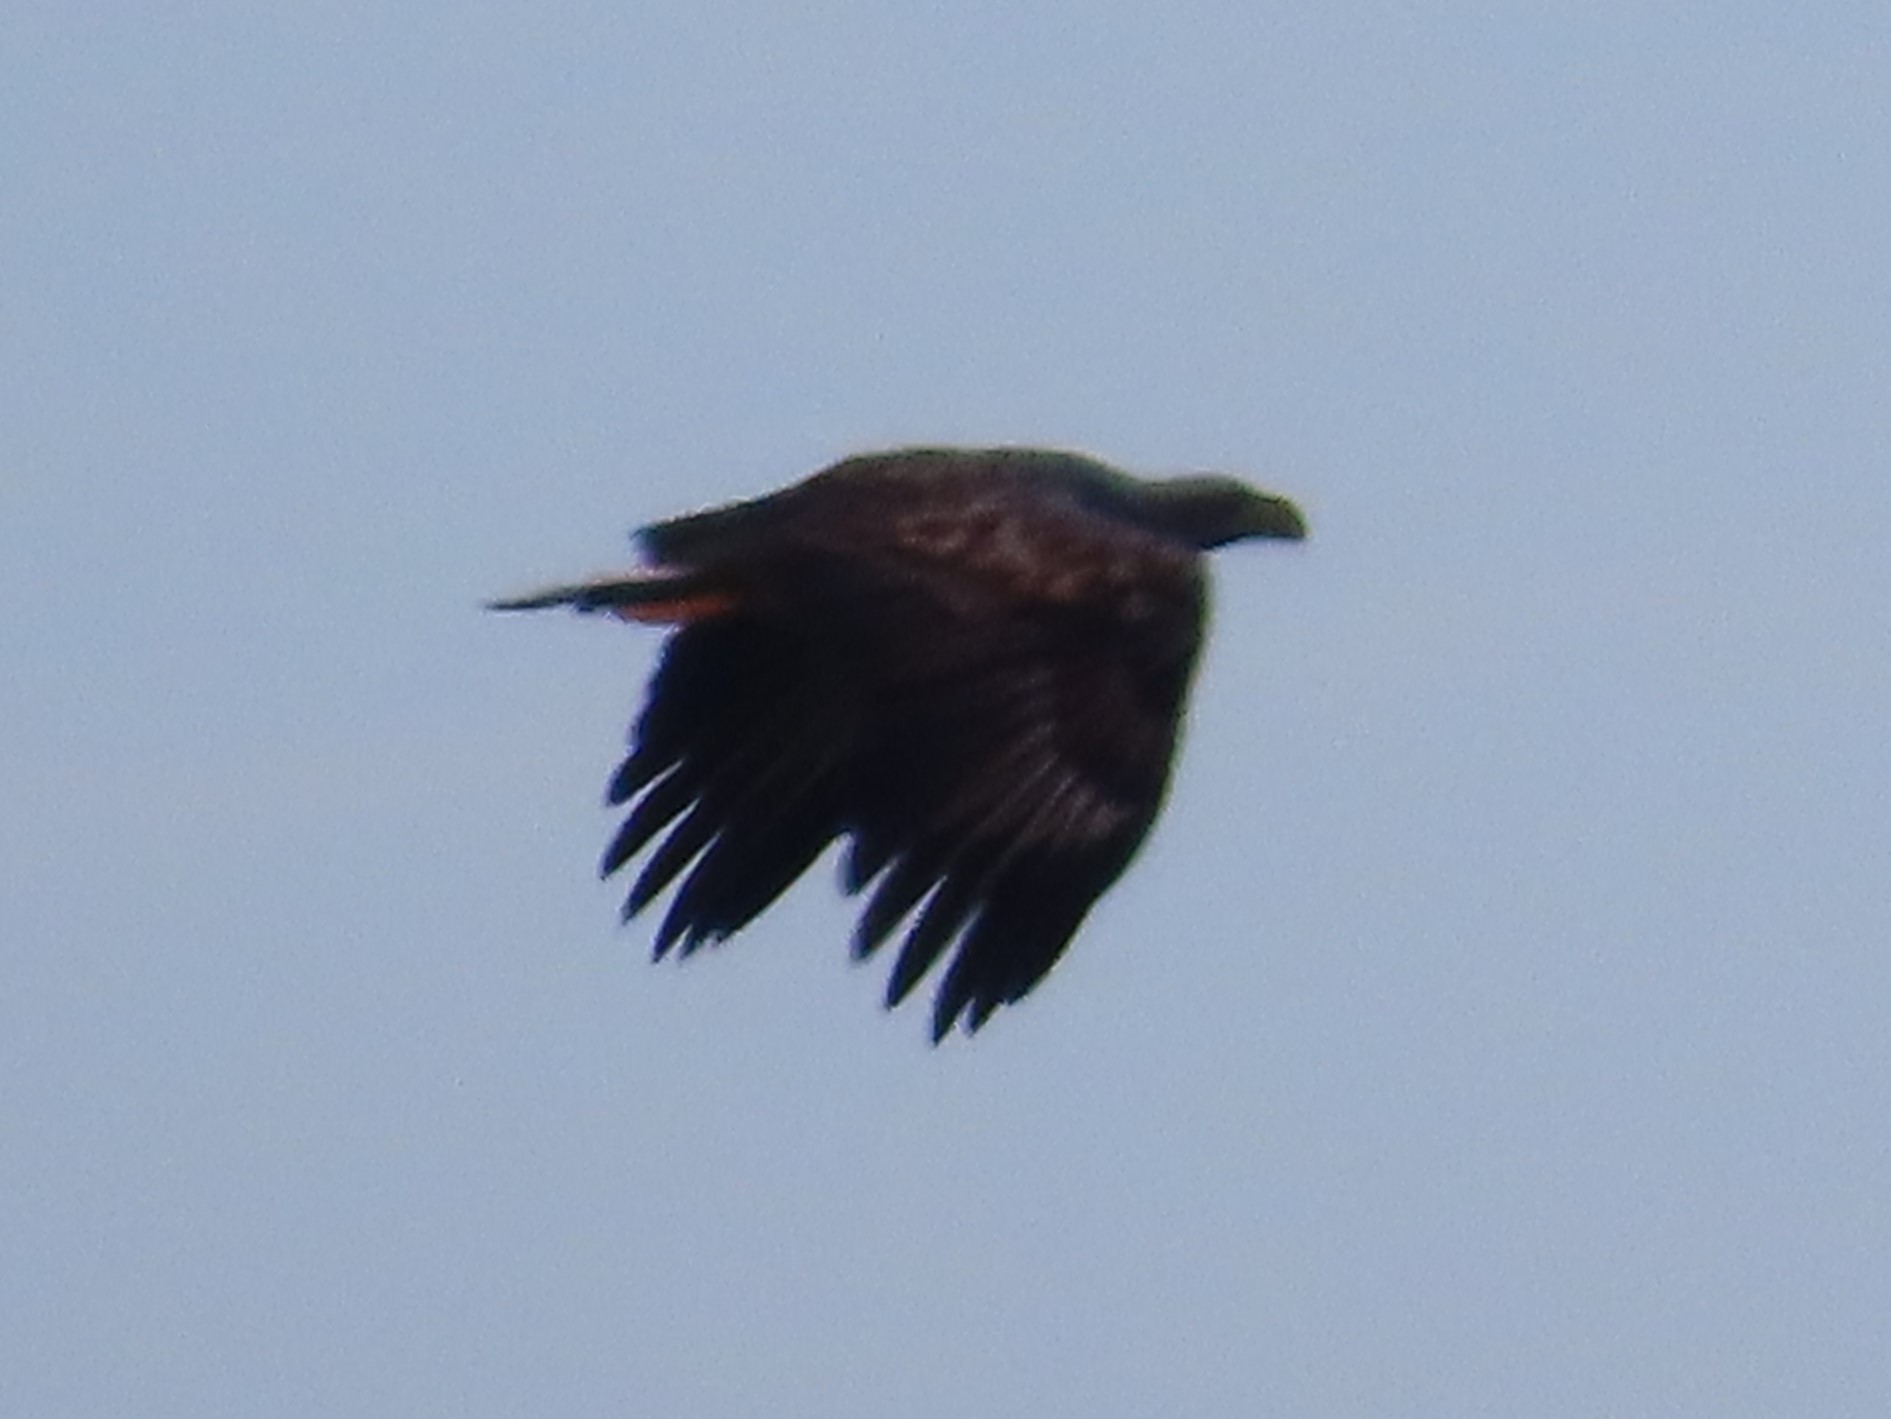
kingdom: Animalia
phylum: Chordata
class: Aves
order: Accipitriformes
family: Accipitridae
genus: Haliaeetus
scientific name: Haliaeetus albicilla
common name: Havørn
